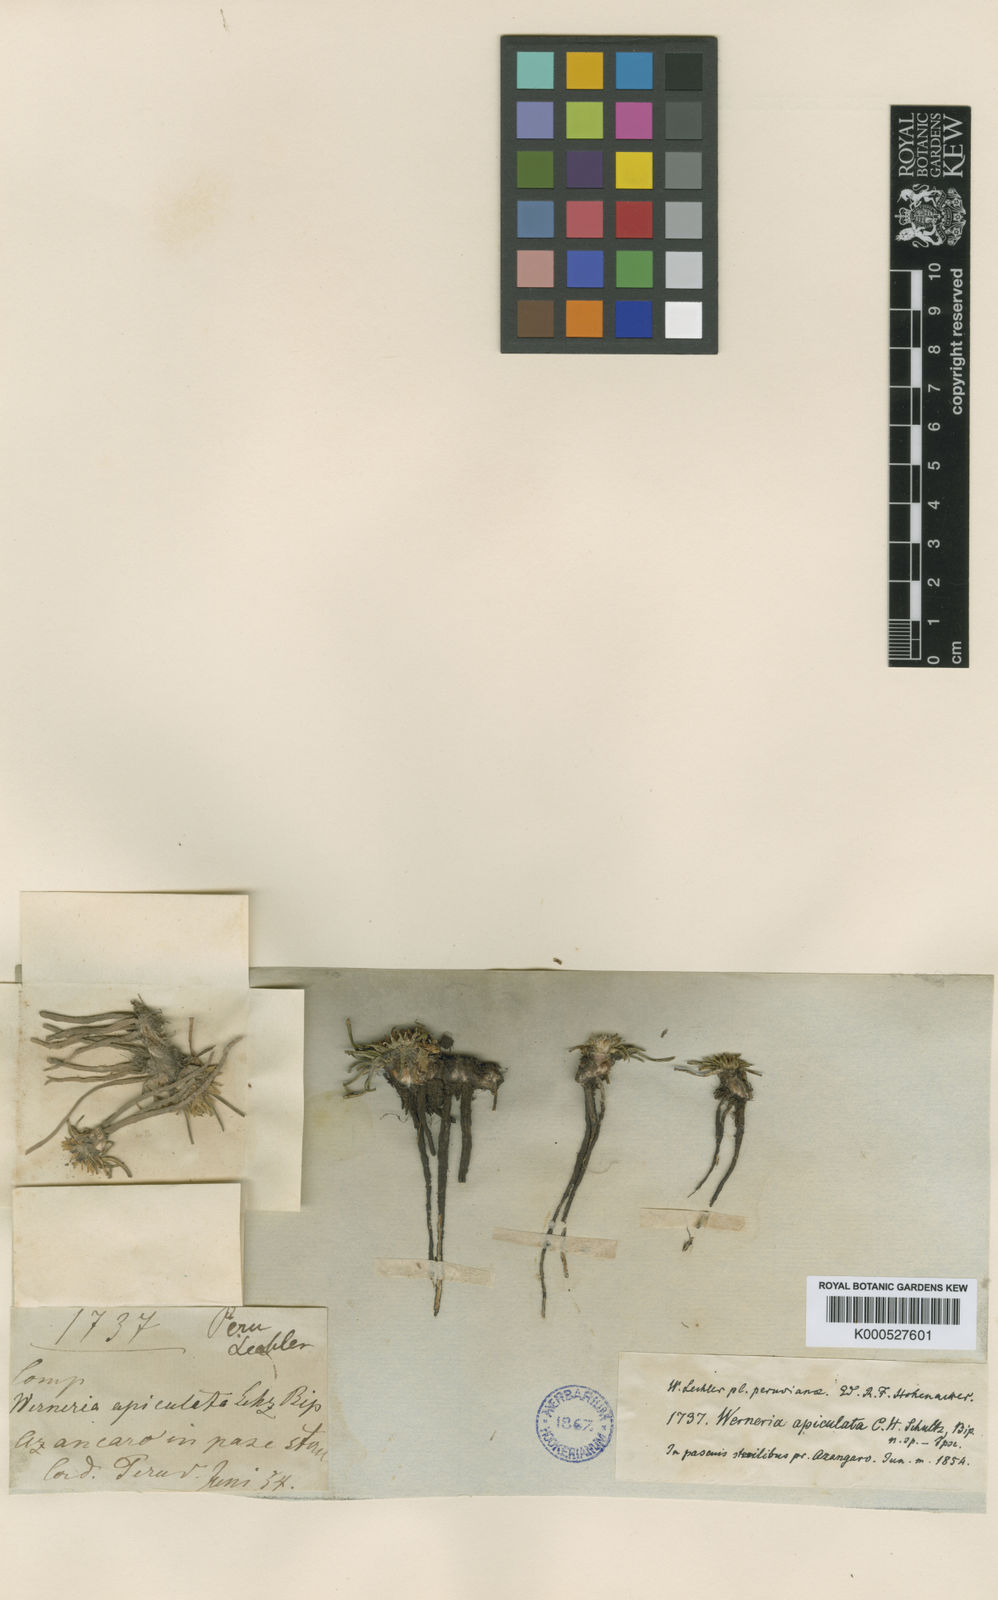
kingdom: Plantae
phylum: Tracheophyta
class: Magnoliopsida
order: Asterales
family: Asteraceae
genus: Rockhausenia
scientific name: Rockhausenia apiculata
